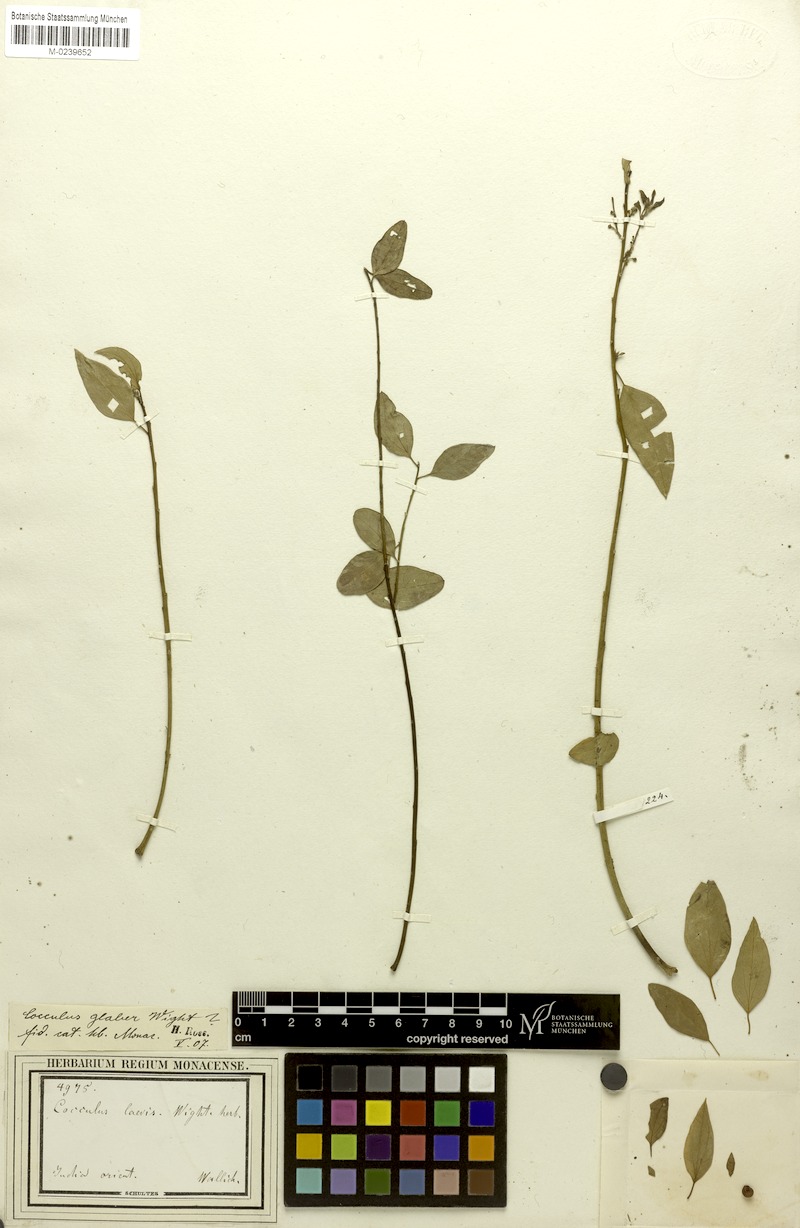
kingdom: Plantae
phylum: Tracheophyta
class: Magnoliopsida
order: Ranunculales
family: Menispermaceae
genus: Cocculus
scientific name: Cocculus pendulus
